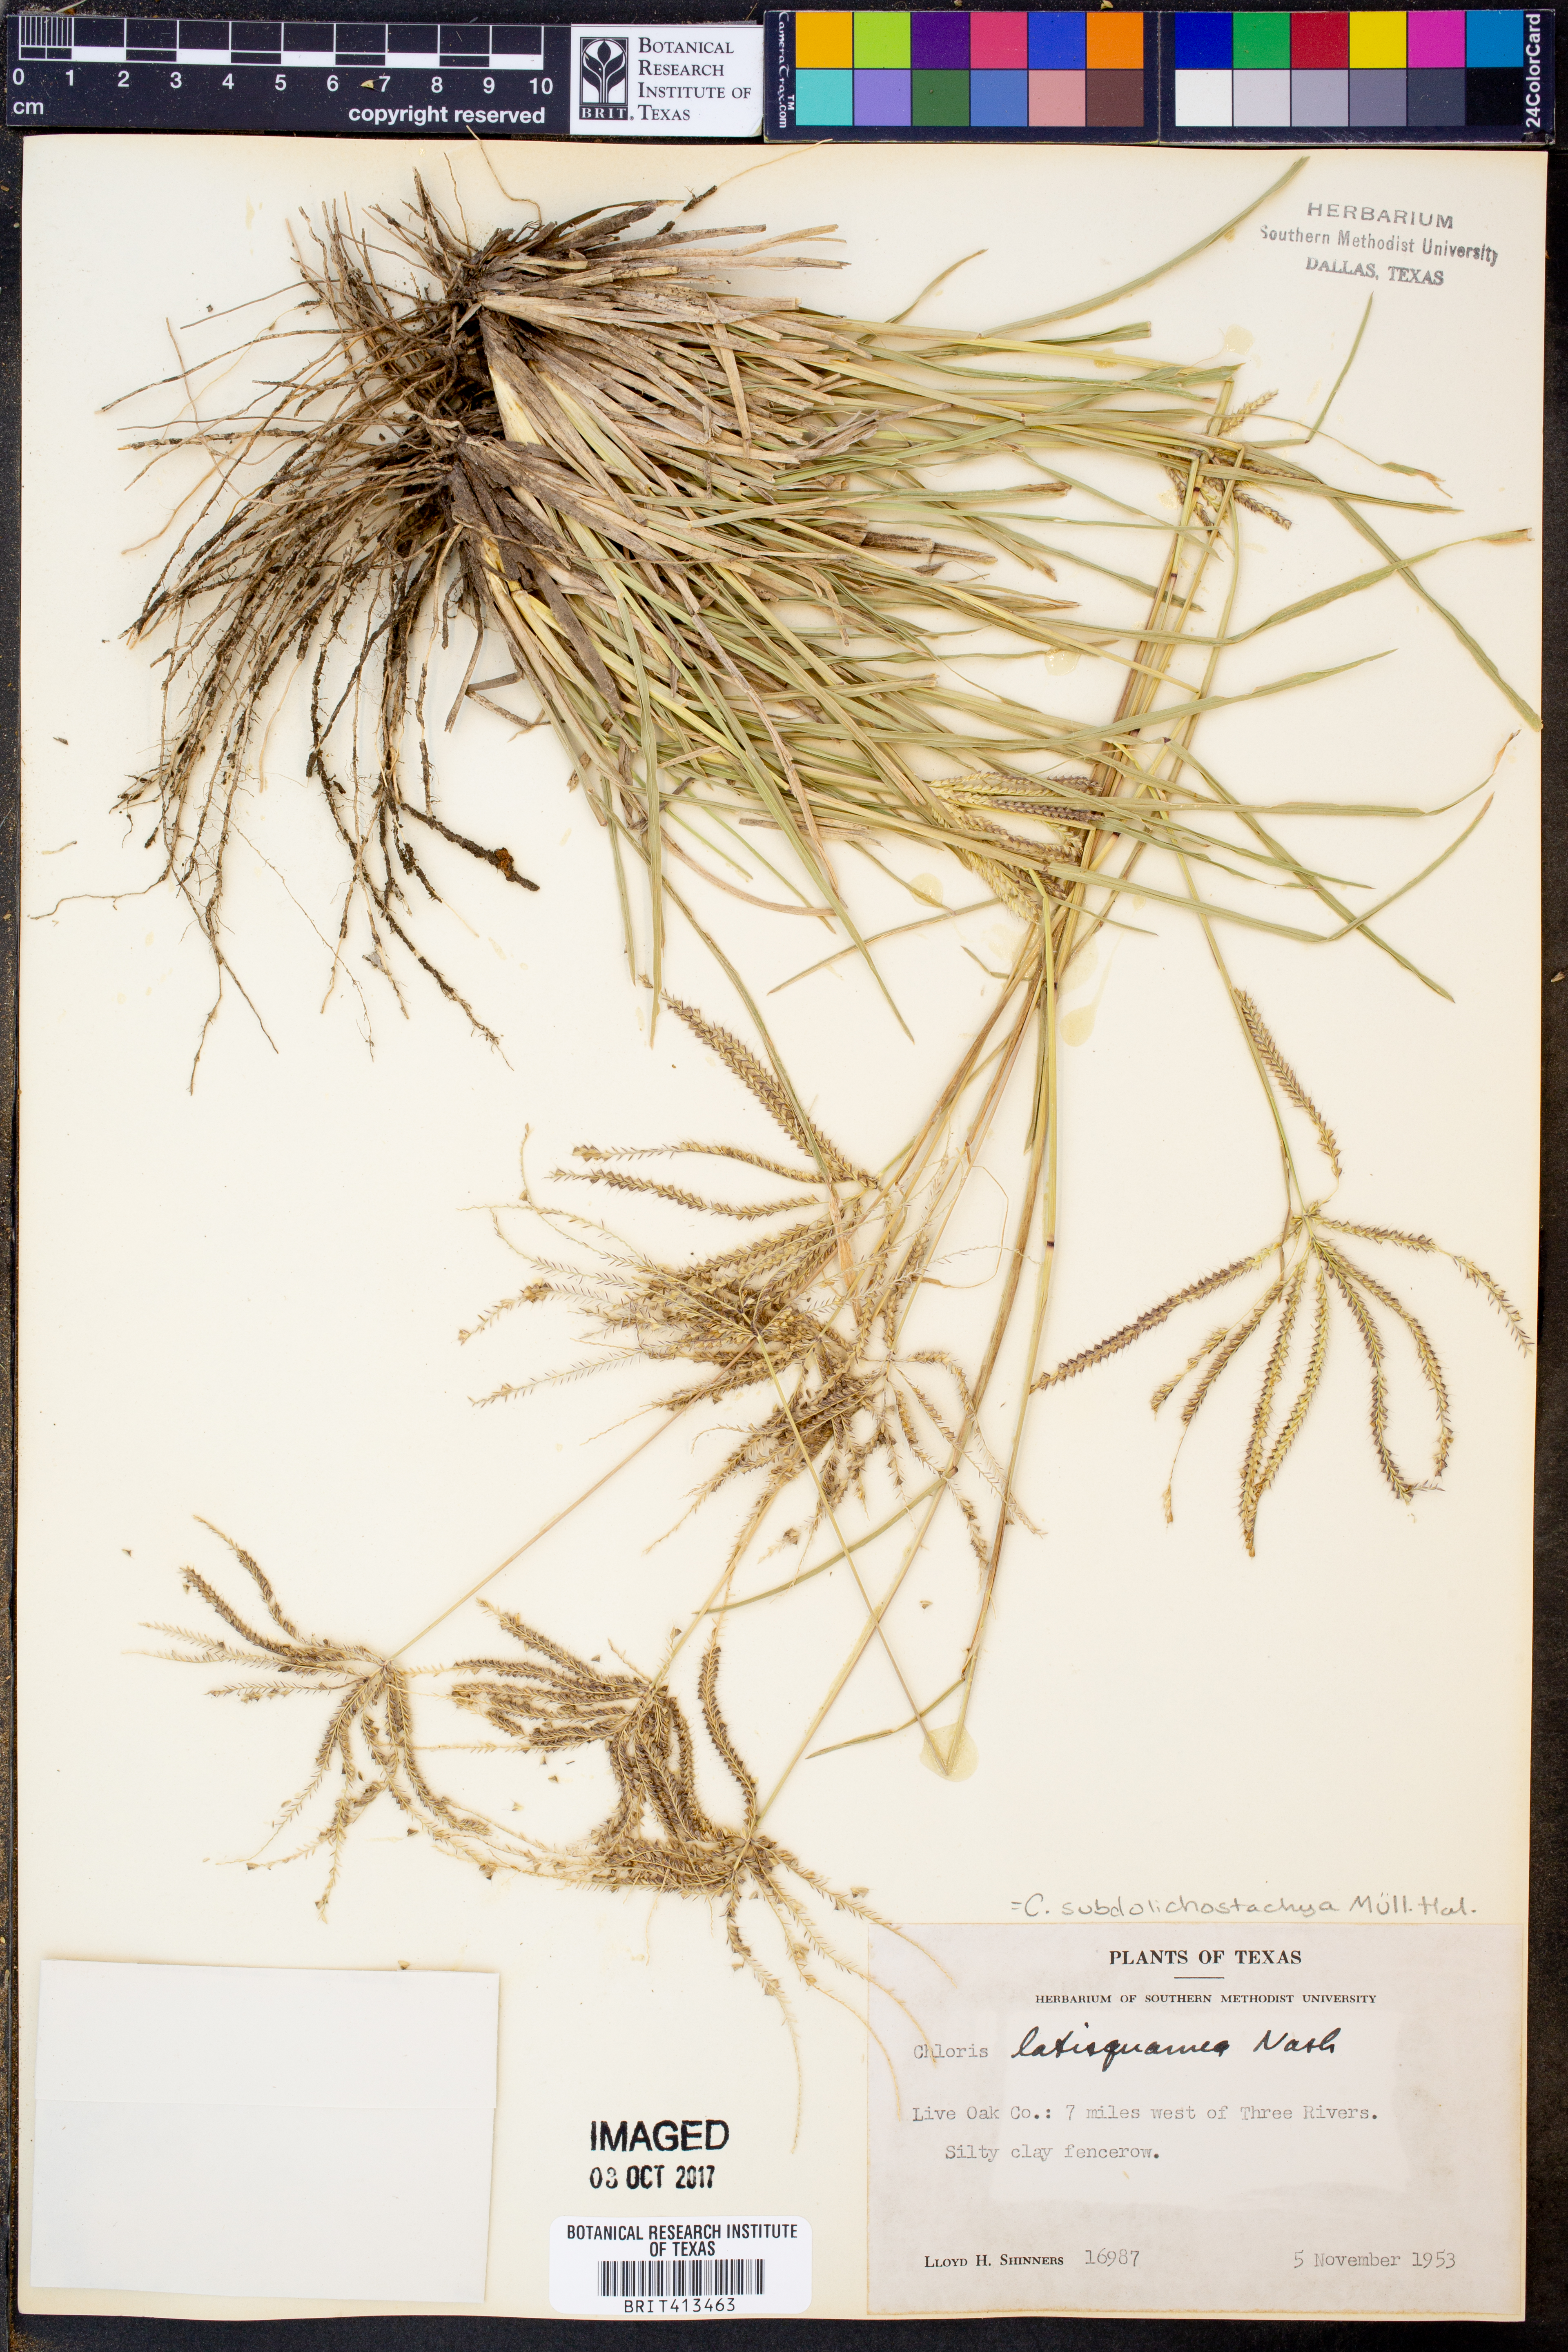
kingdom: Plantae
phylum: Tracheophyta
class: Liliopsida
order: Poales
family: Poaceae
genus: Chloris
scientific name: Chloris subdolichostachya
